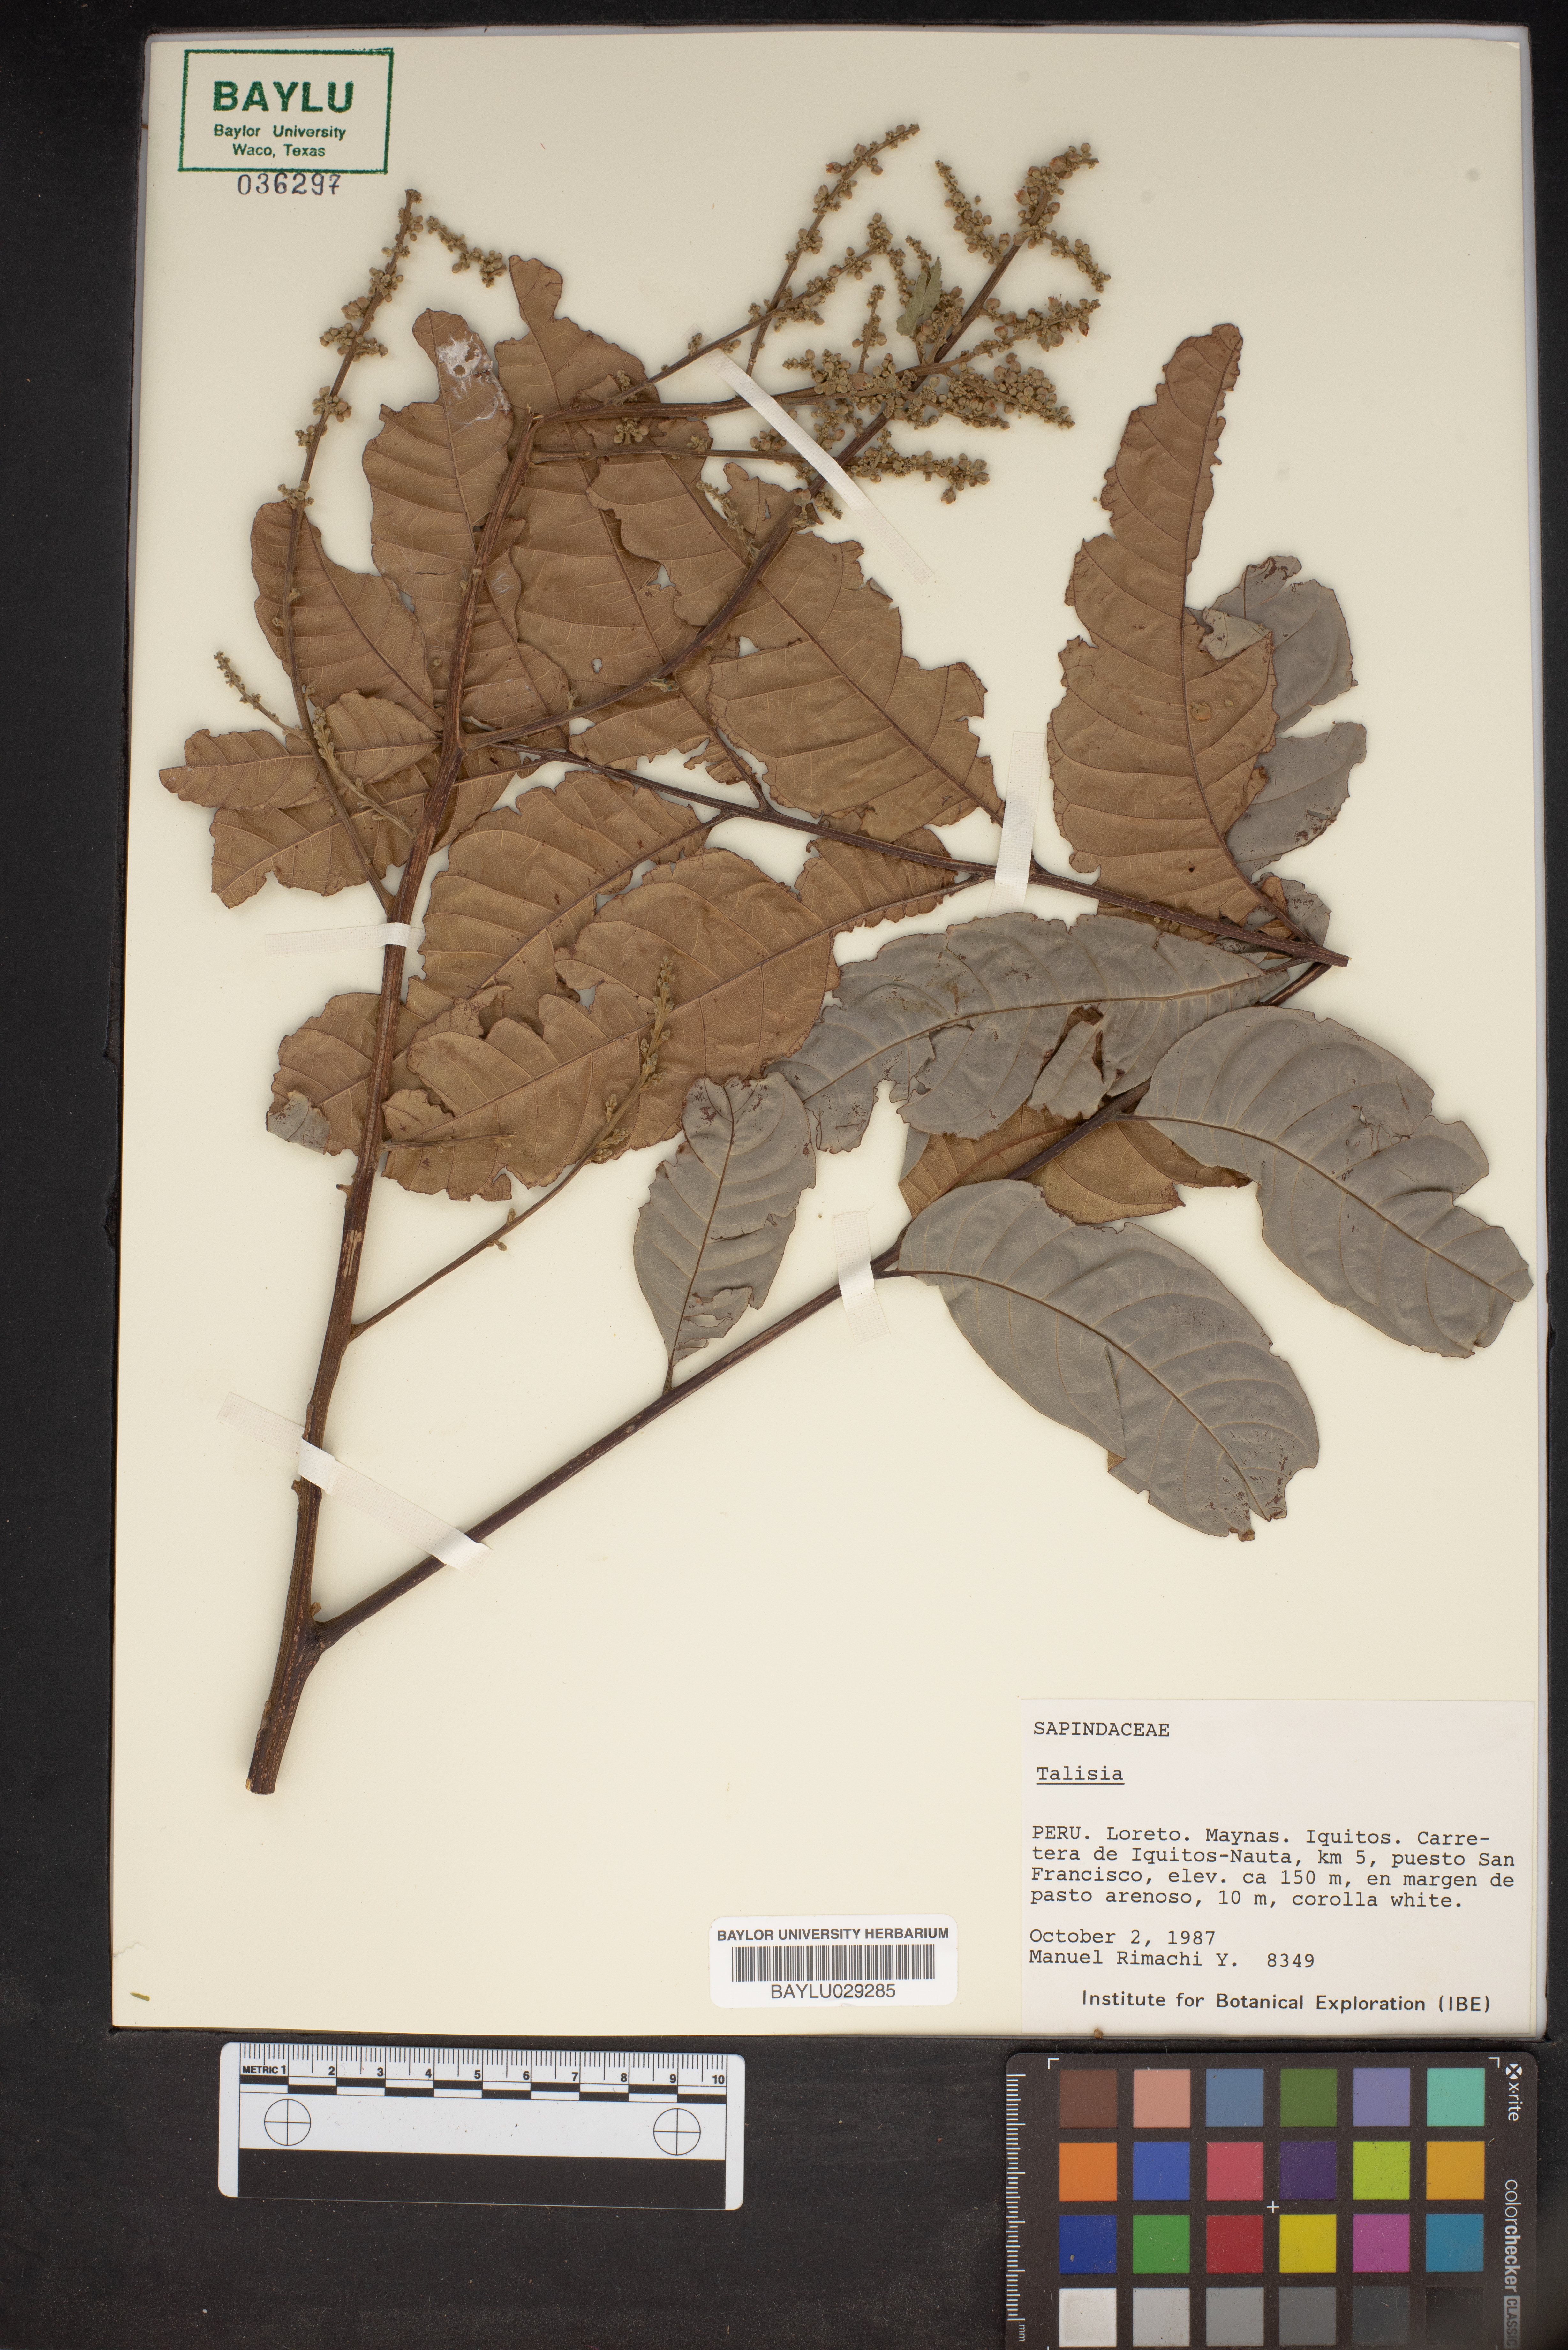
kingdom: Plantae
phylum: Tracheophyta
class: Magnoliopsida
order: Sapindales
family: Sapindaceae
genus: Talisia
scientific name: Talisia
